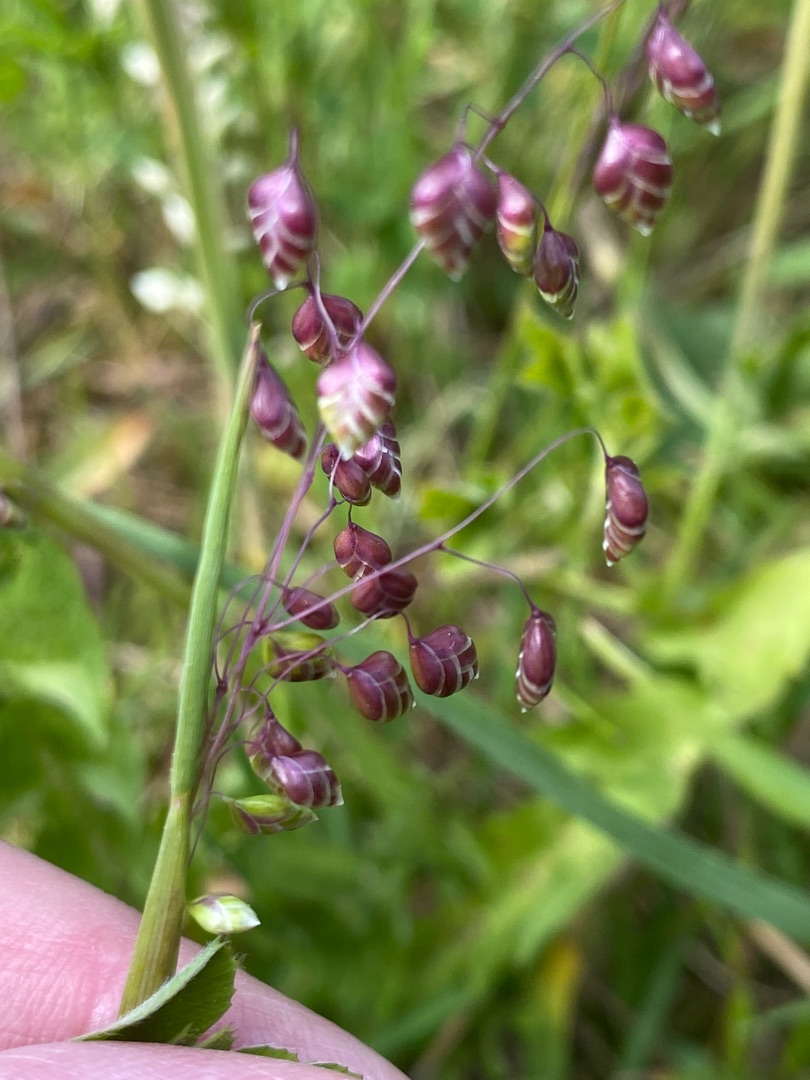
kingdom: Plantae
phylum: Tracheophyta
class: Liliopsida
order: Poales
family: Poaceae
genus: Briza
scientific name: Briza media
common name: Hjertegræs
